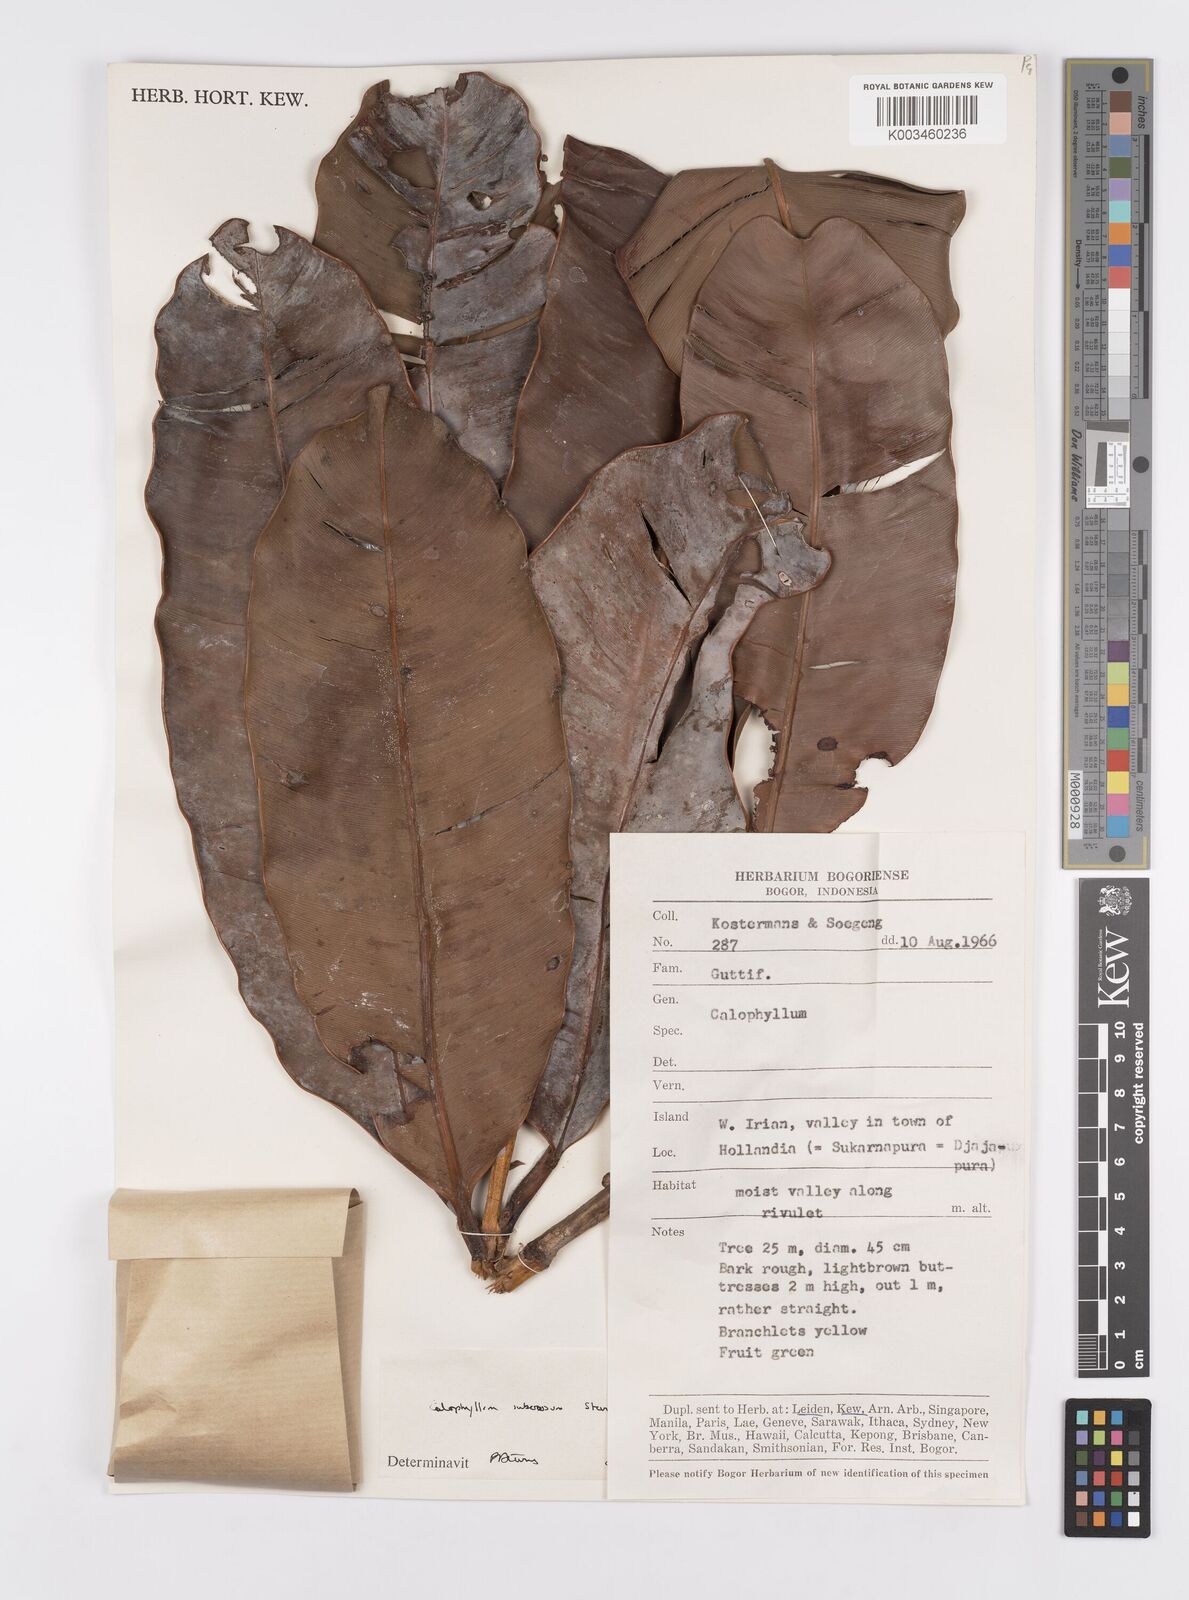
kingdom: Plantae
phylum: Tracheophyta
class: Magnoliopsida
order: Malpighiales
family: Calophyllaceae
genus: Calophyllum
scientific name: Calophyllum persimile
